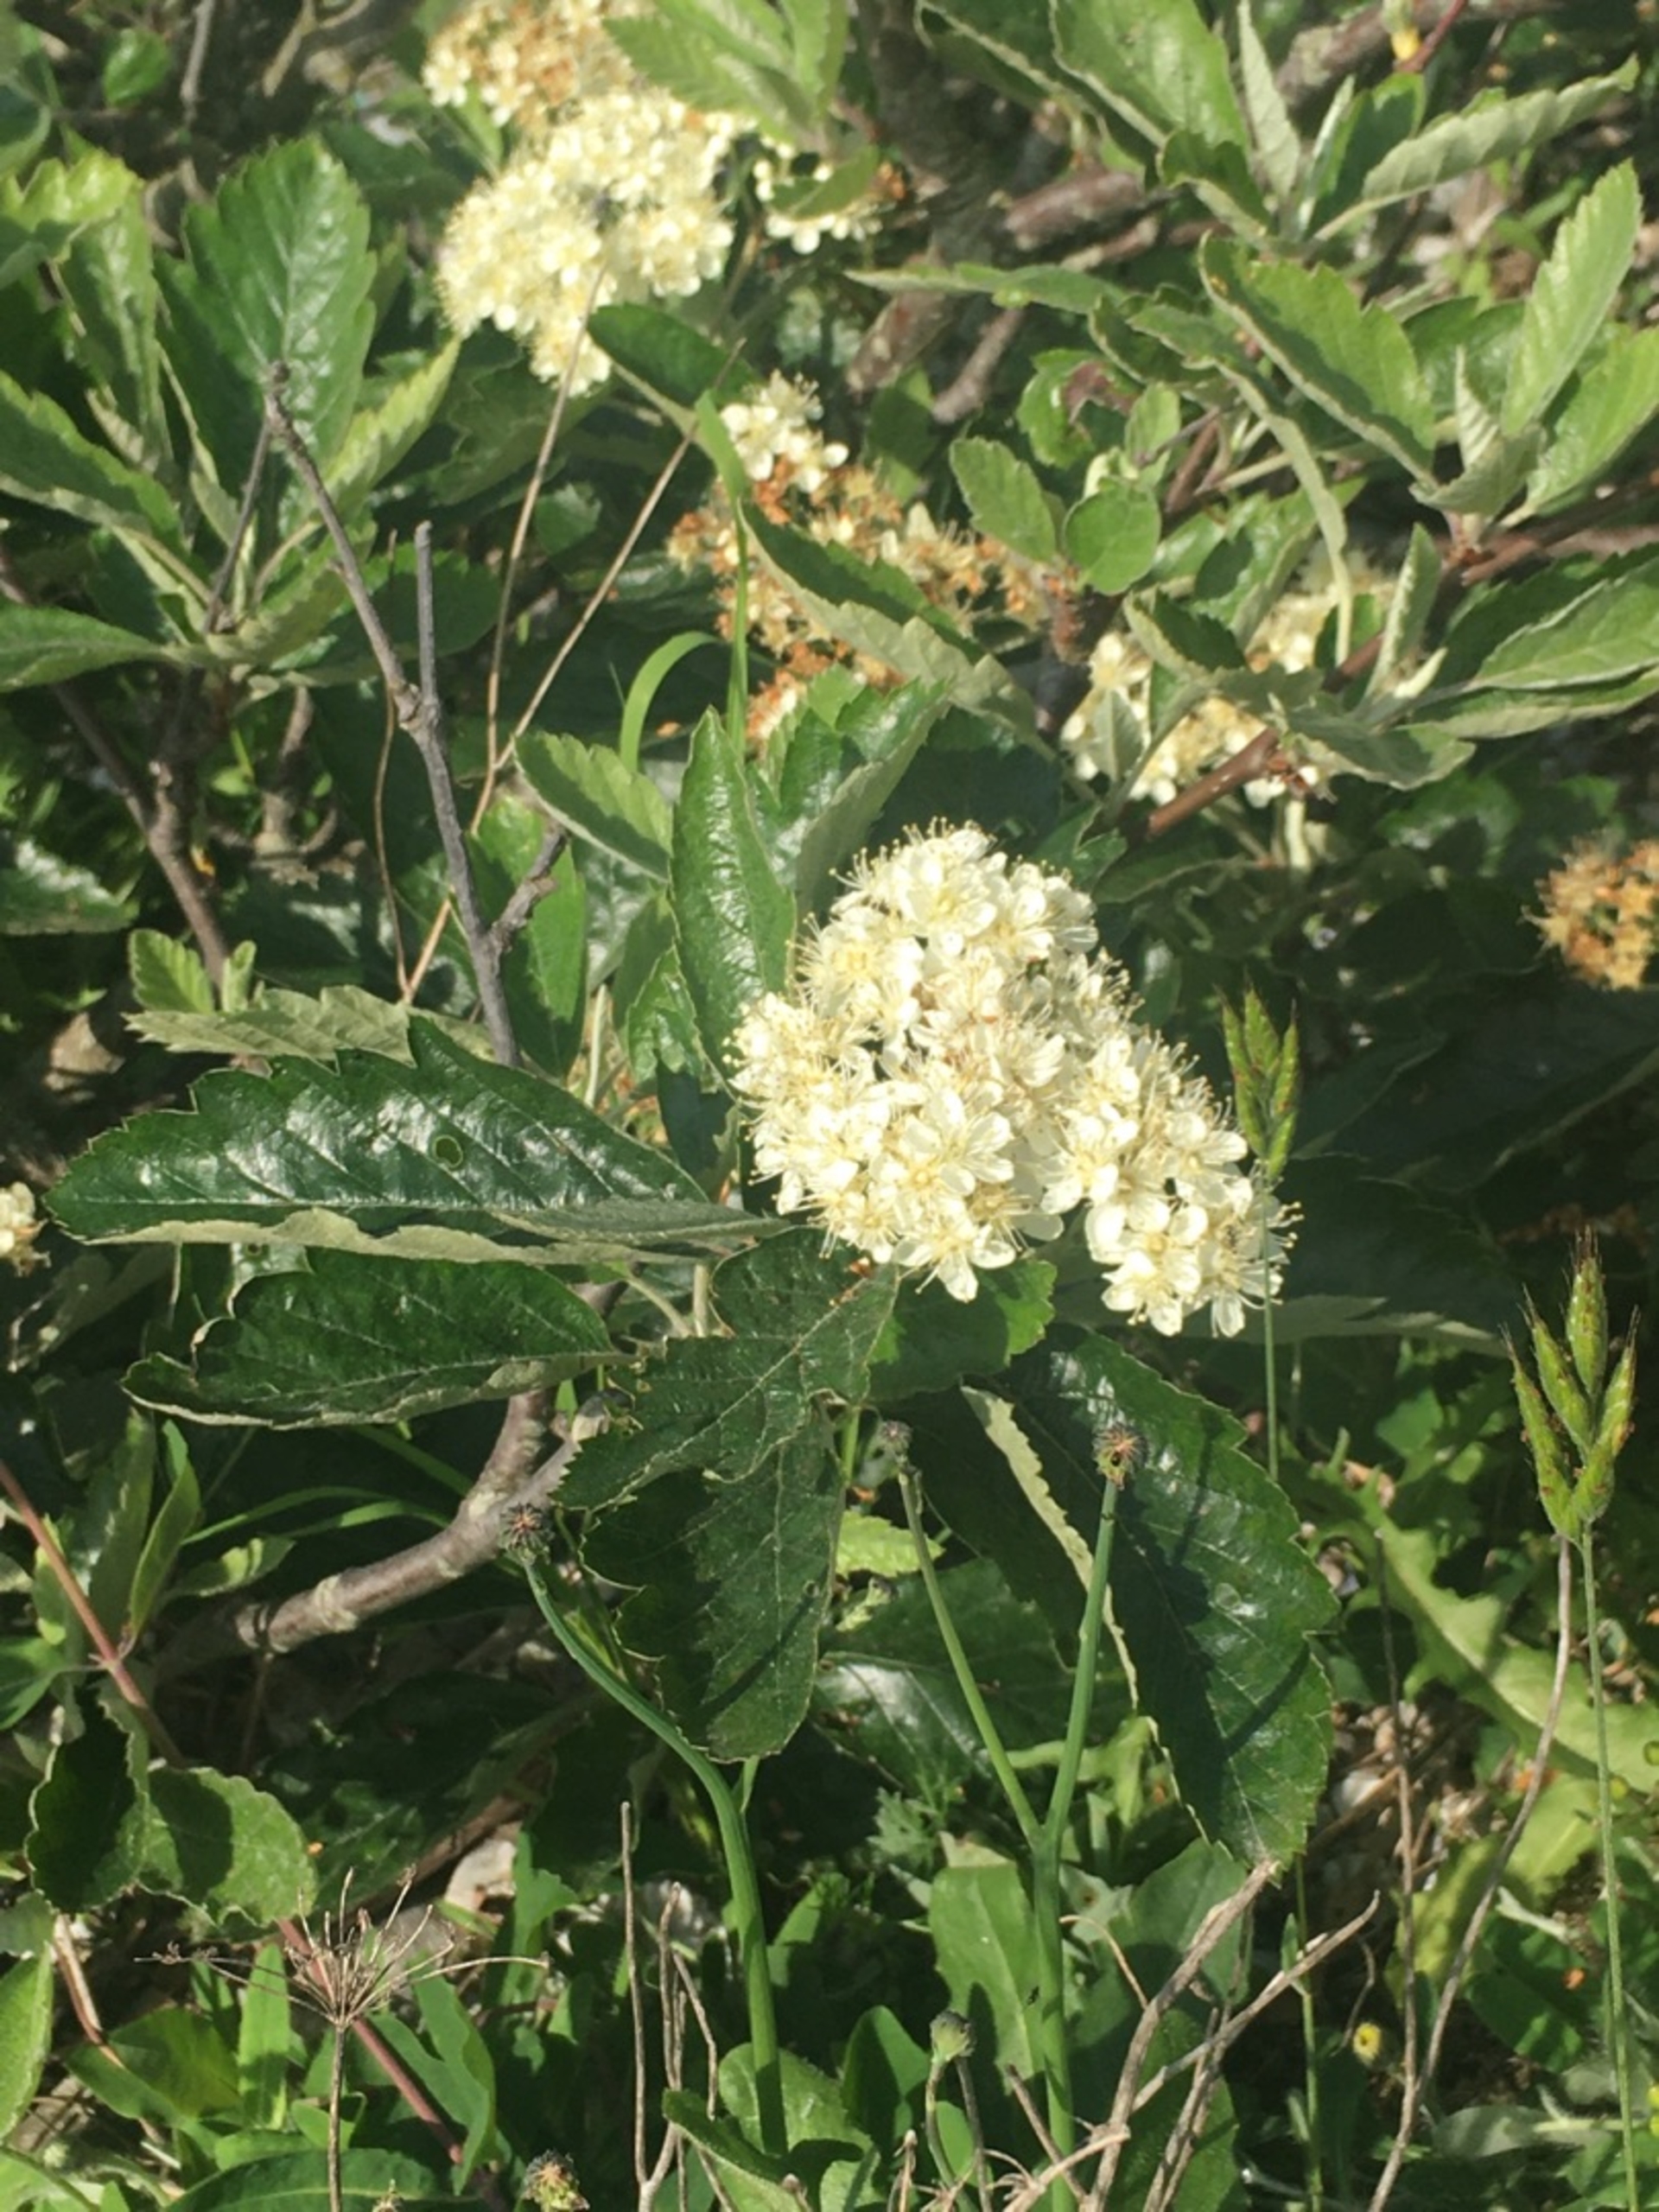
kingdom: Plantae
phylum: Tracheophyta
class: Magnoliopsida
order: Rosales
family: Rosaceae
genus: Scandosorbus
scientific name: Scandosorbus intermedia
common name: Selje-røn
